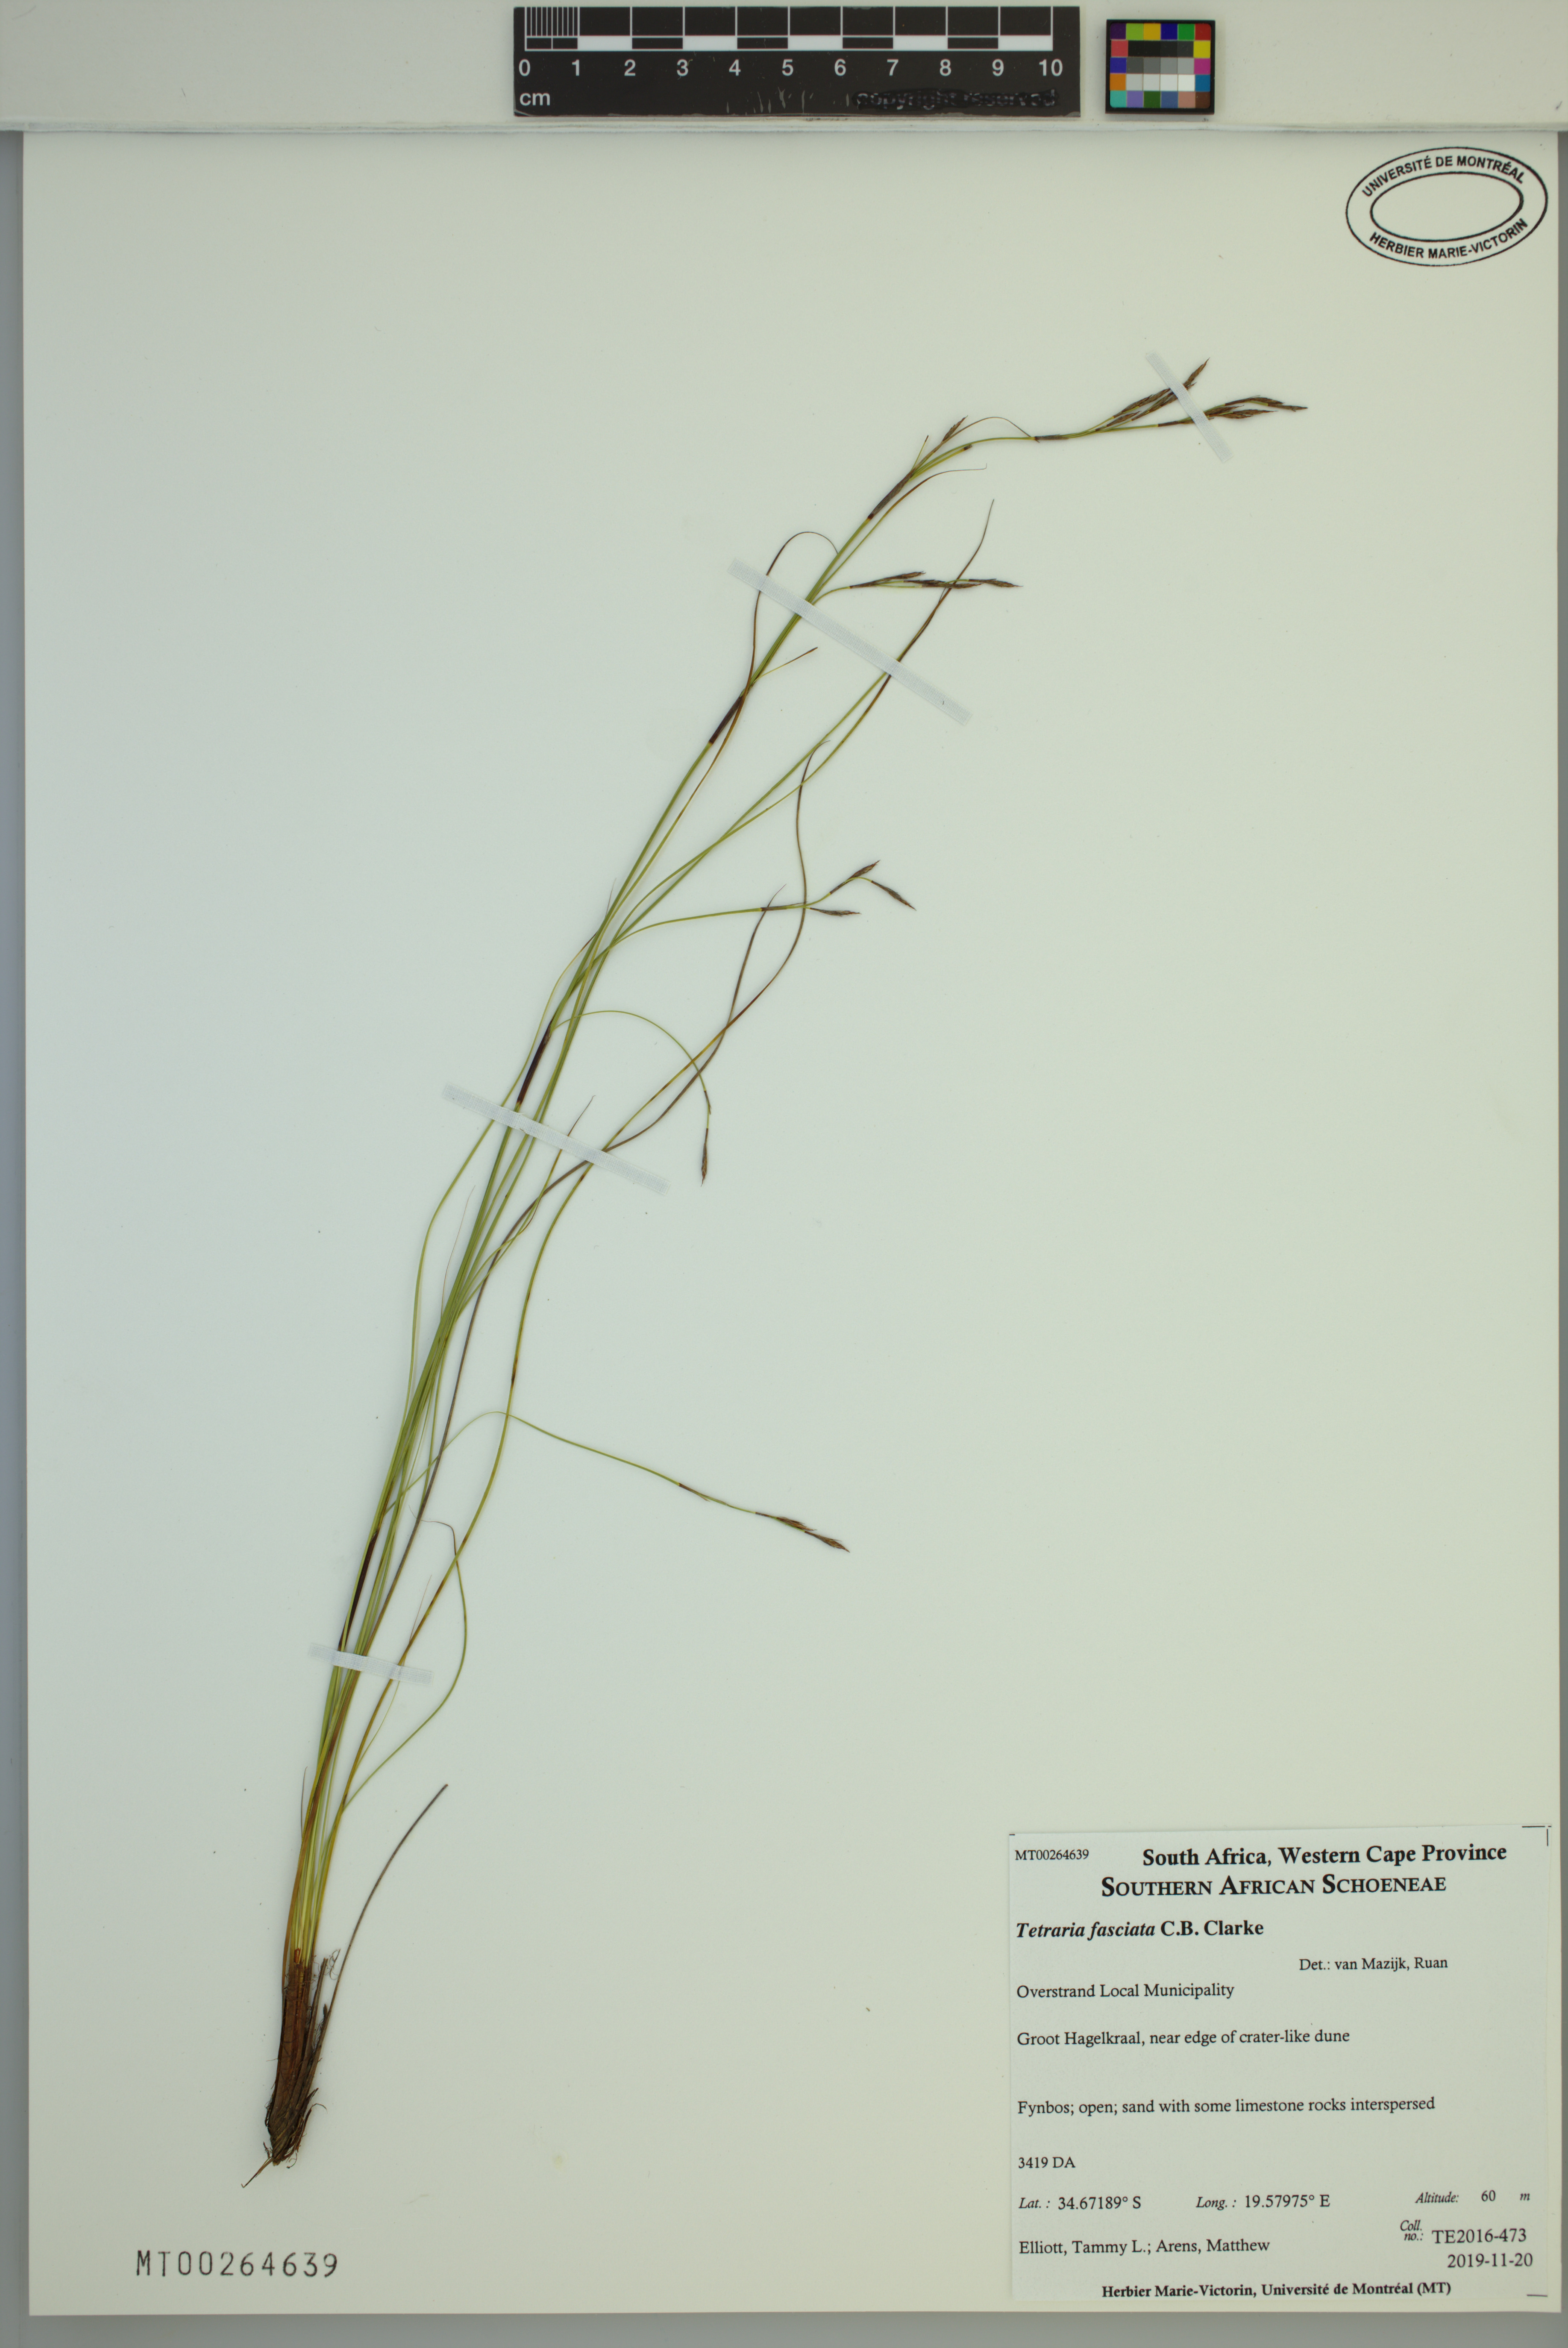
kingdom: Plantae
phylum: Tracheophyta
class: Liliopsida
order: Poales
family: Cyperaceae
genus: Tetraria
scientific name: Tetraria fasciata
